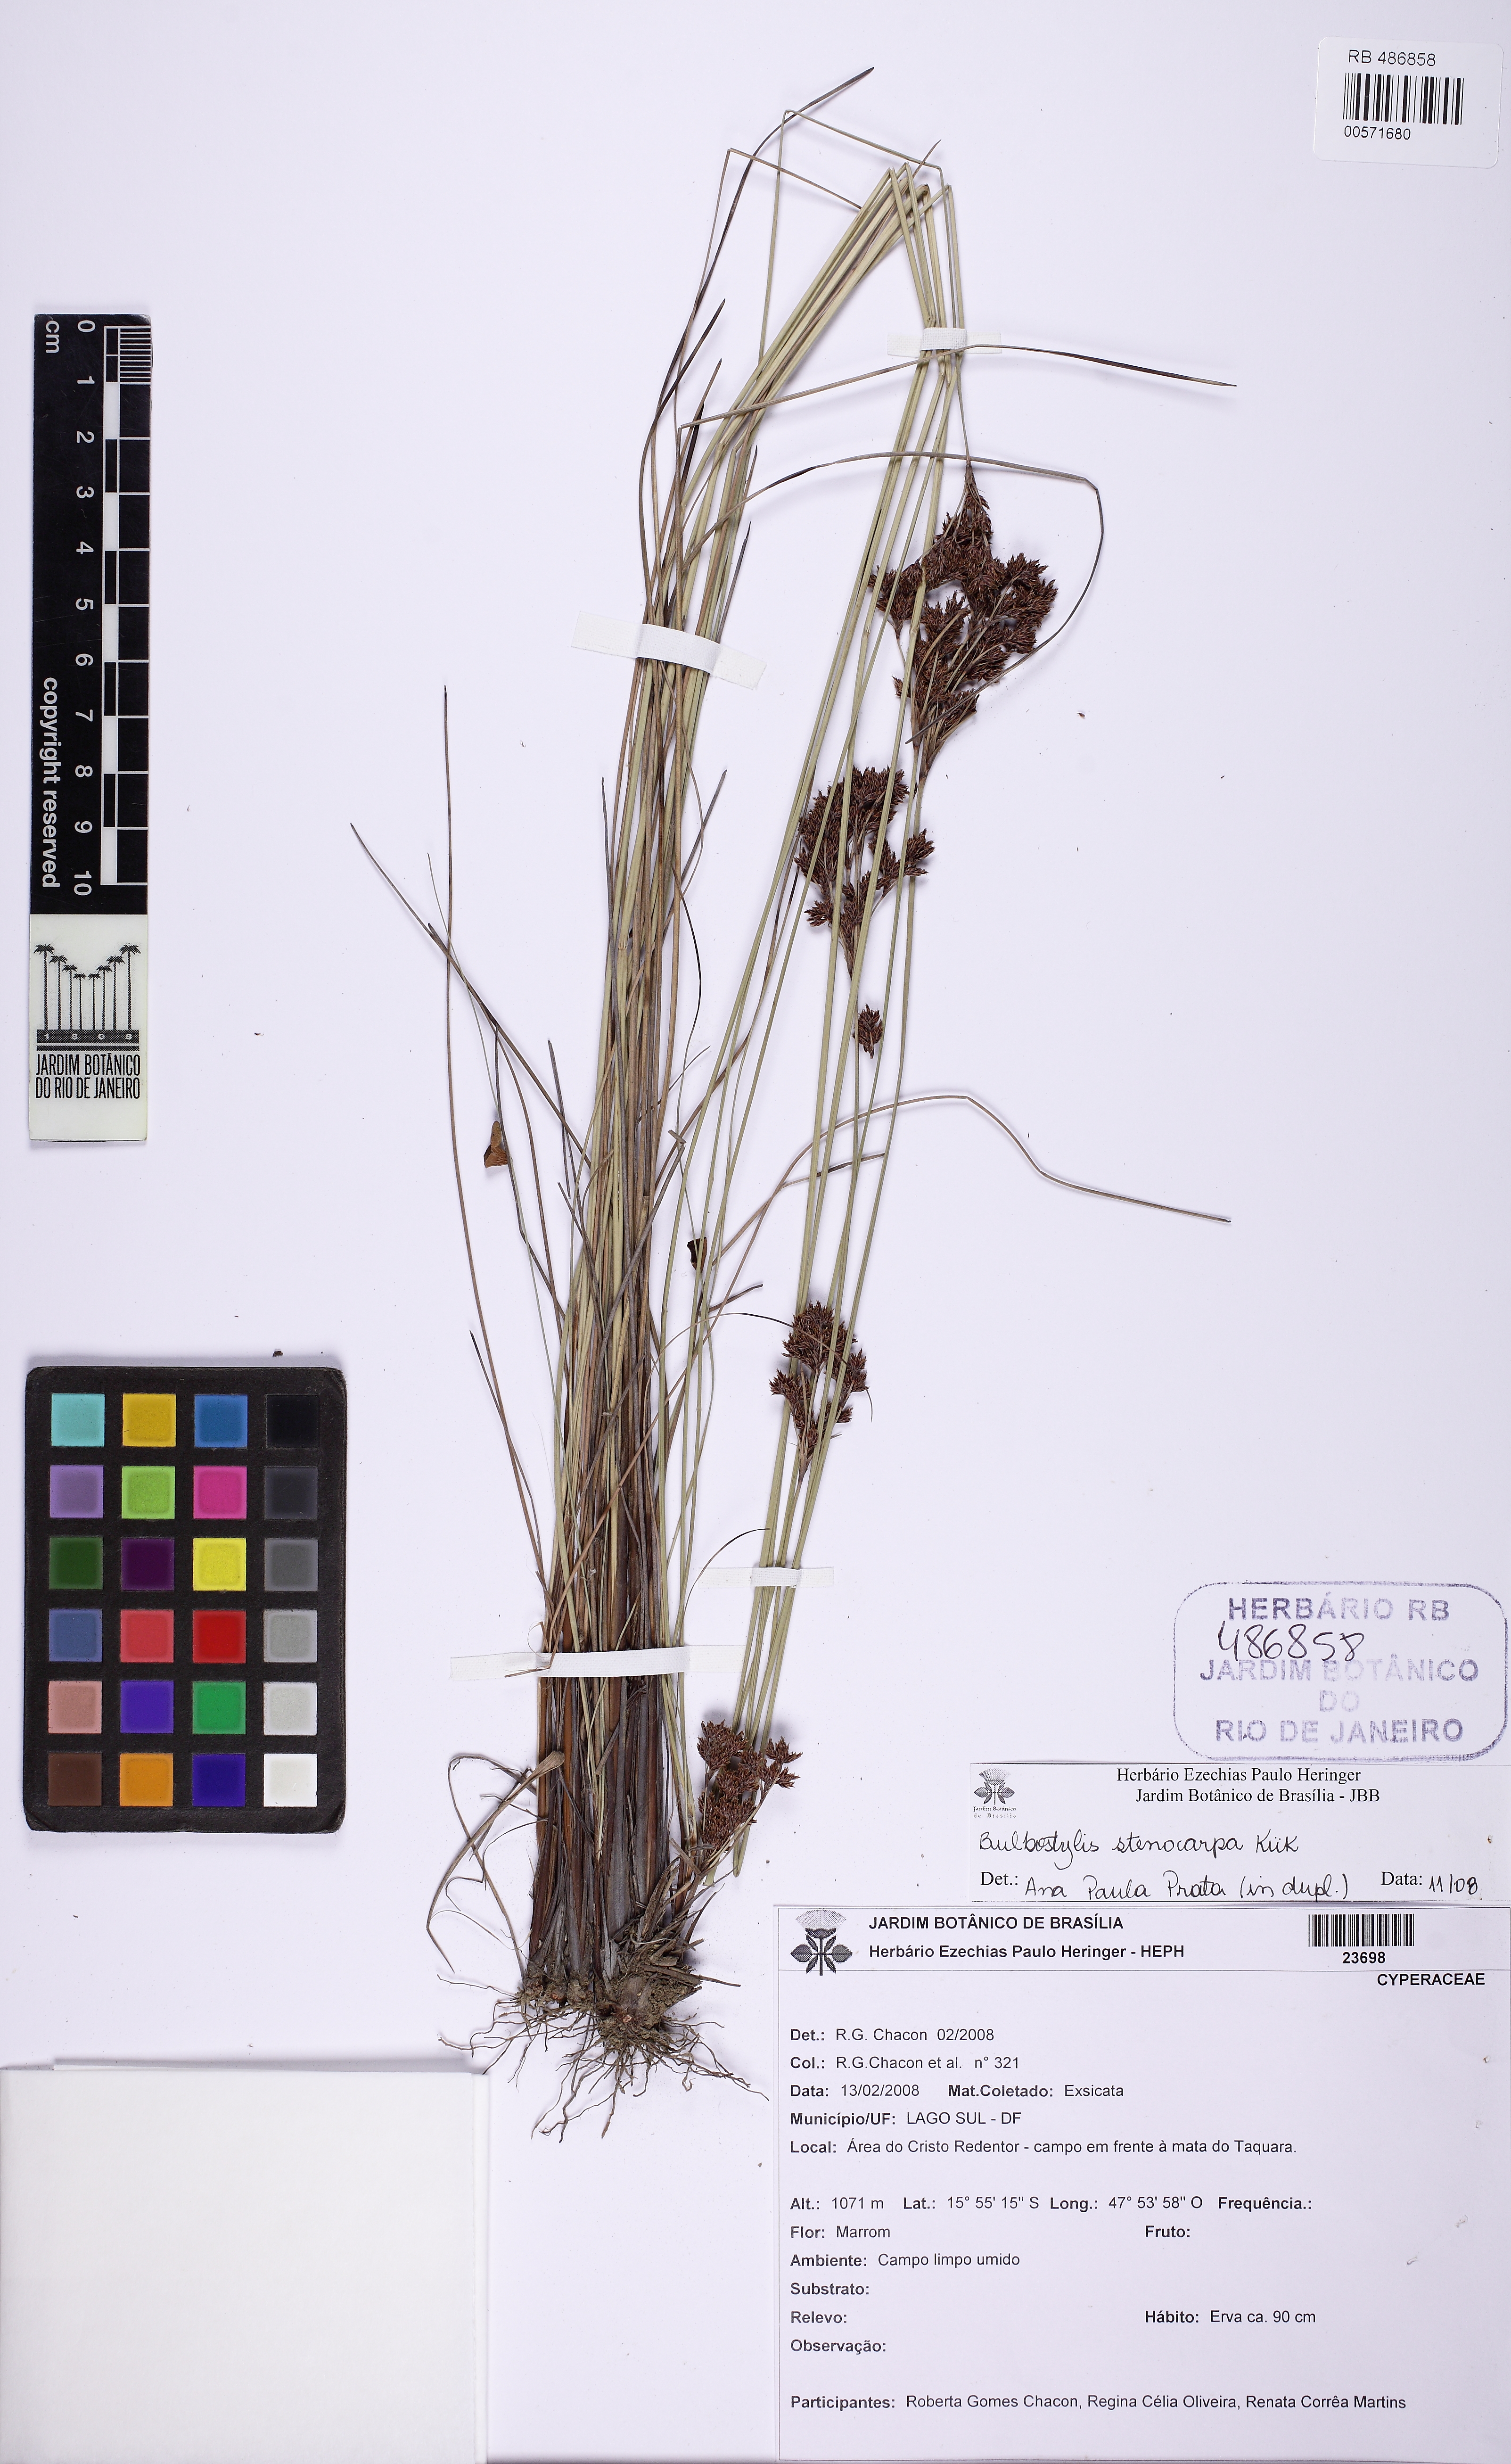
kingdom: Plantae
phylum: Anthocerotophyta
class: Anthocerotopsida
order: Anthocerotales
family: Anthocerotaceae
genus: Phaeoceros
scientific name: Phaeoceros
